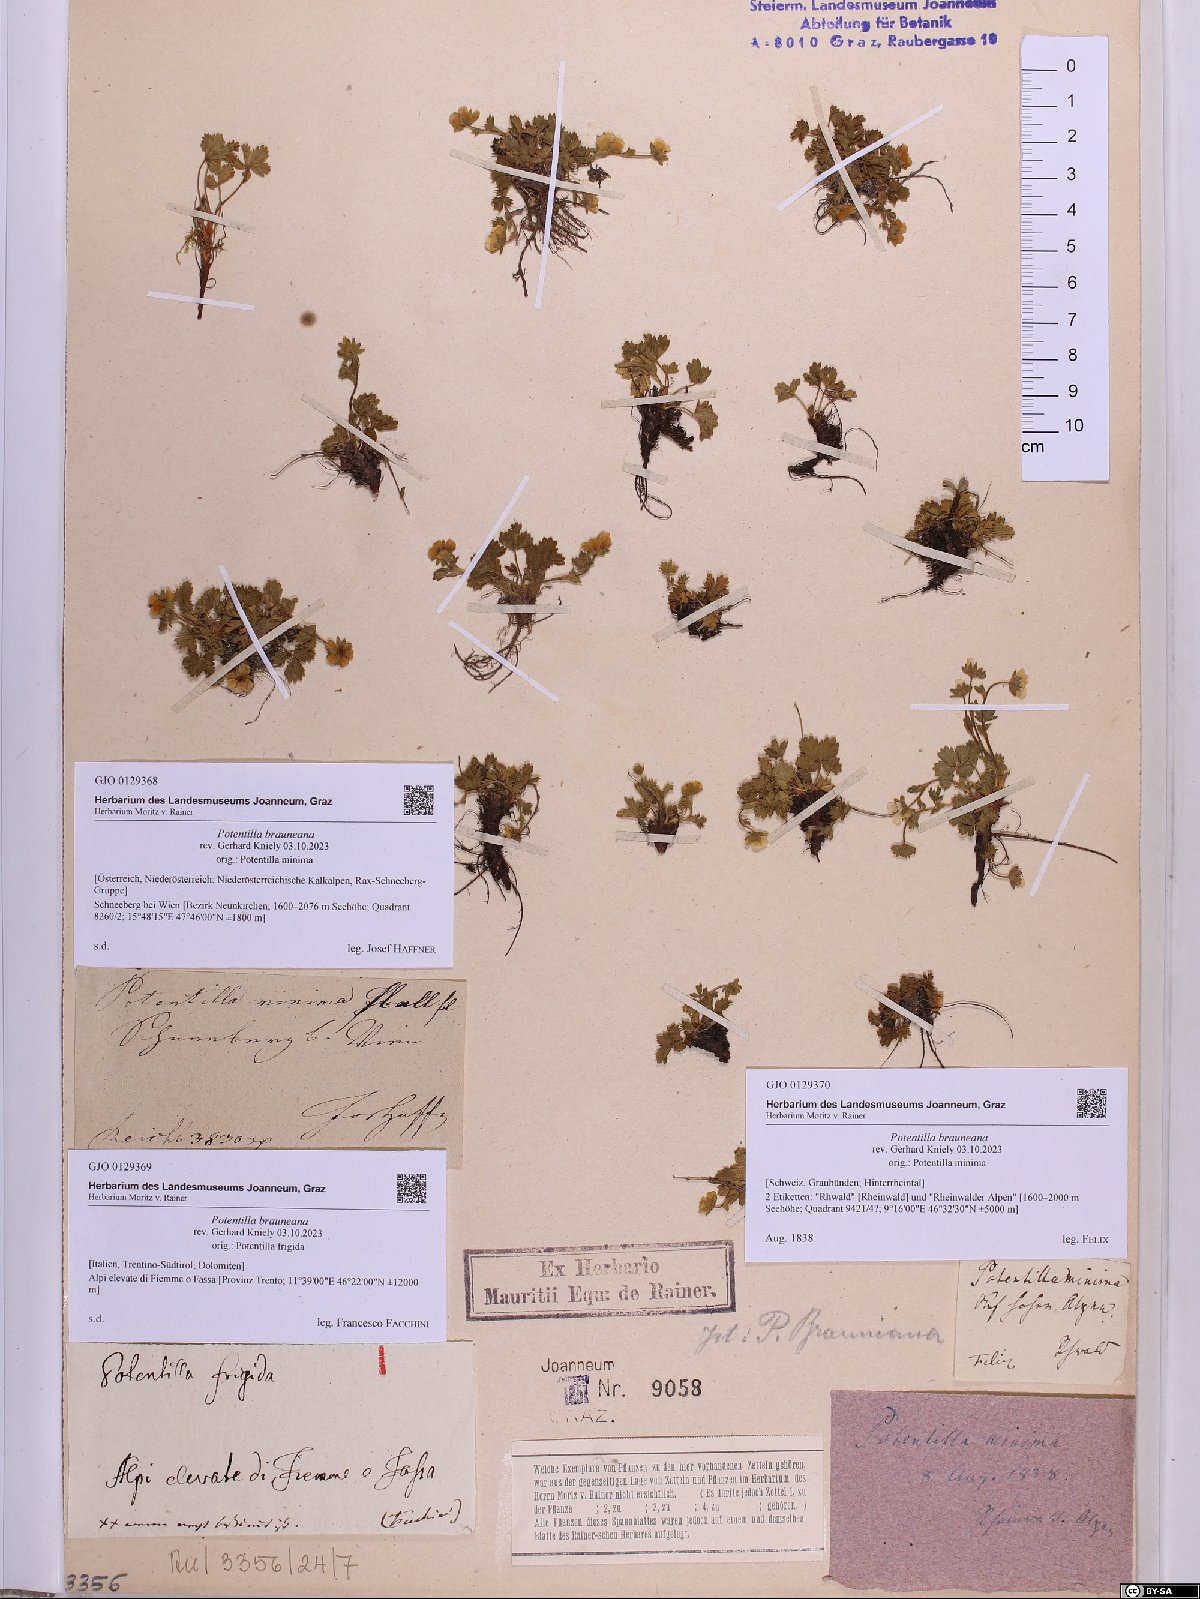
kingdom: Plantae
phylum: Tracheophyta
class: Magnoliopsida
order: Rosales
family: Rosaceae
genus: Potentilla
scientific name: Potentilla brauneana
